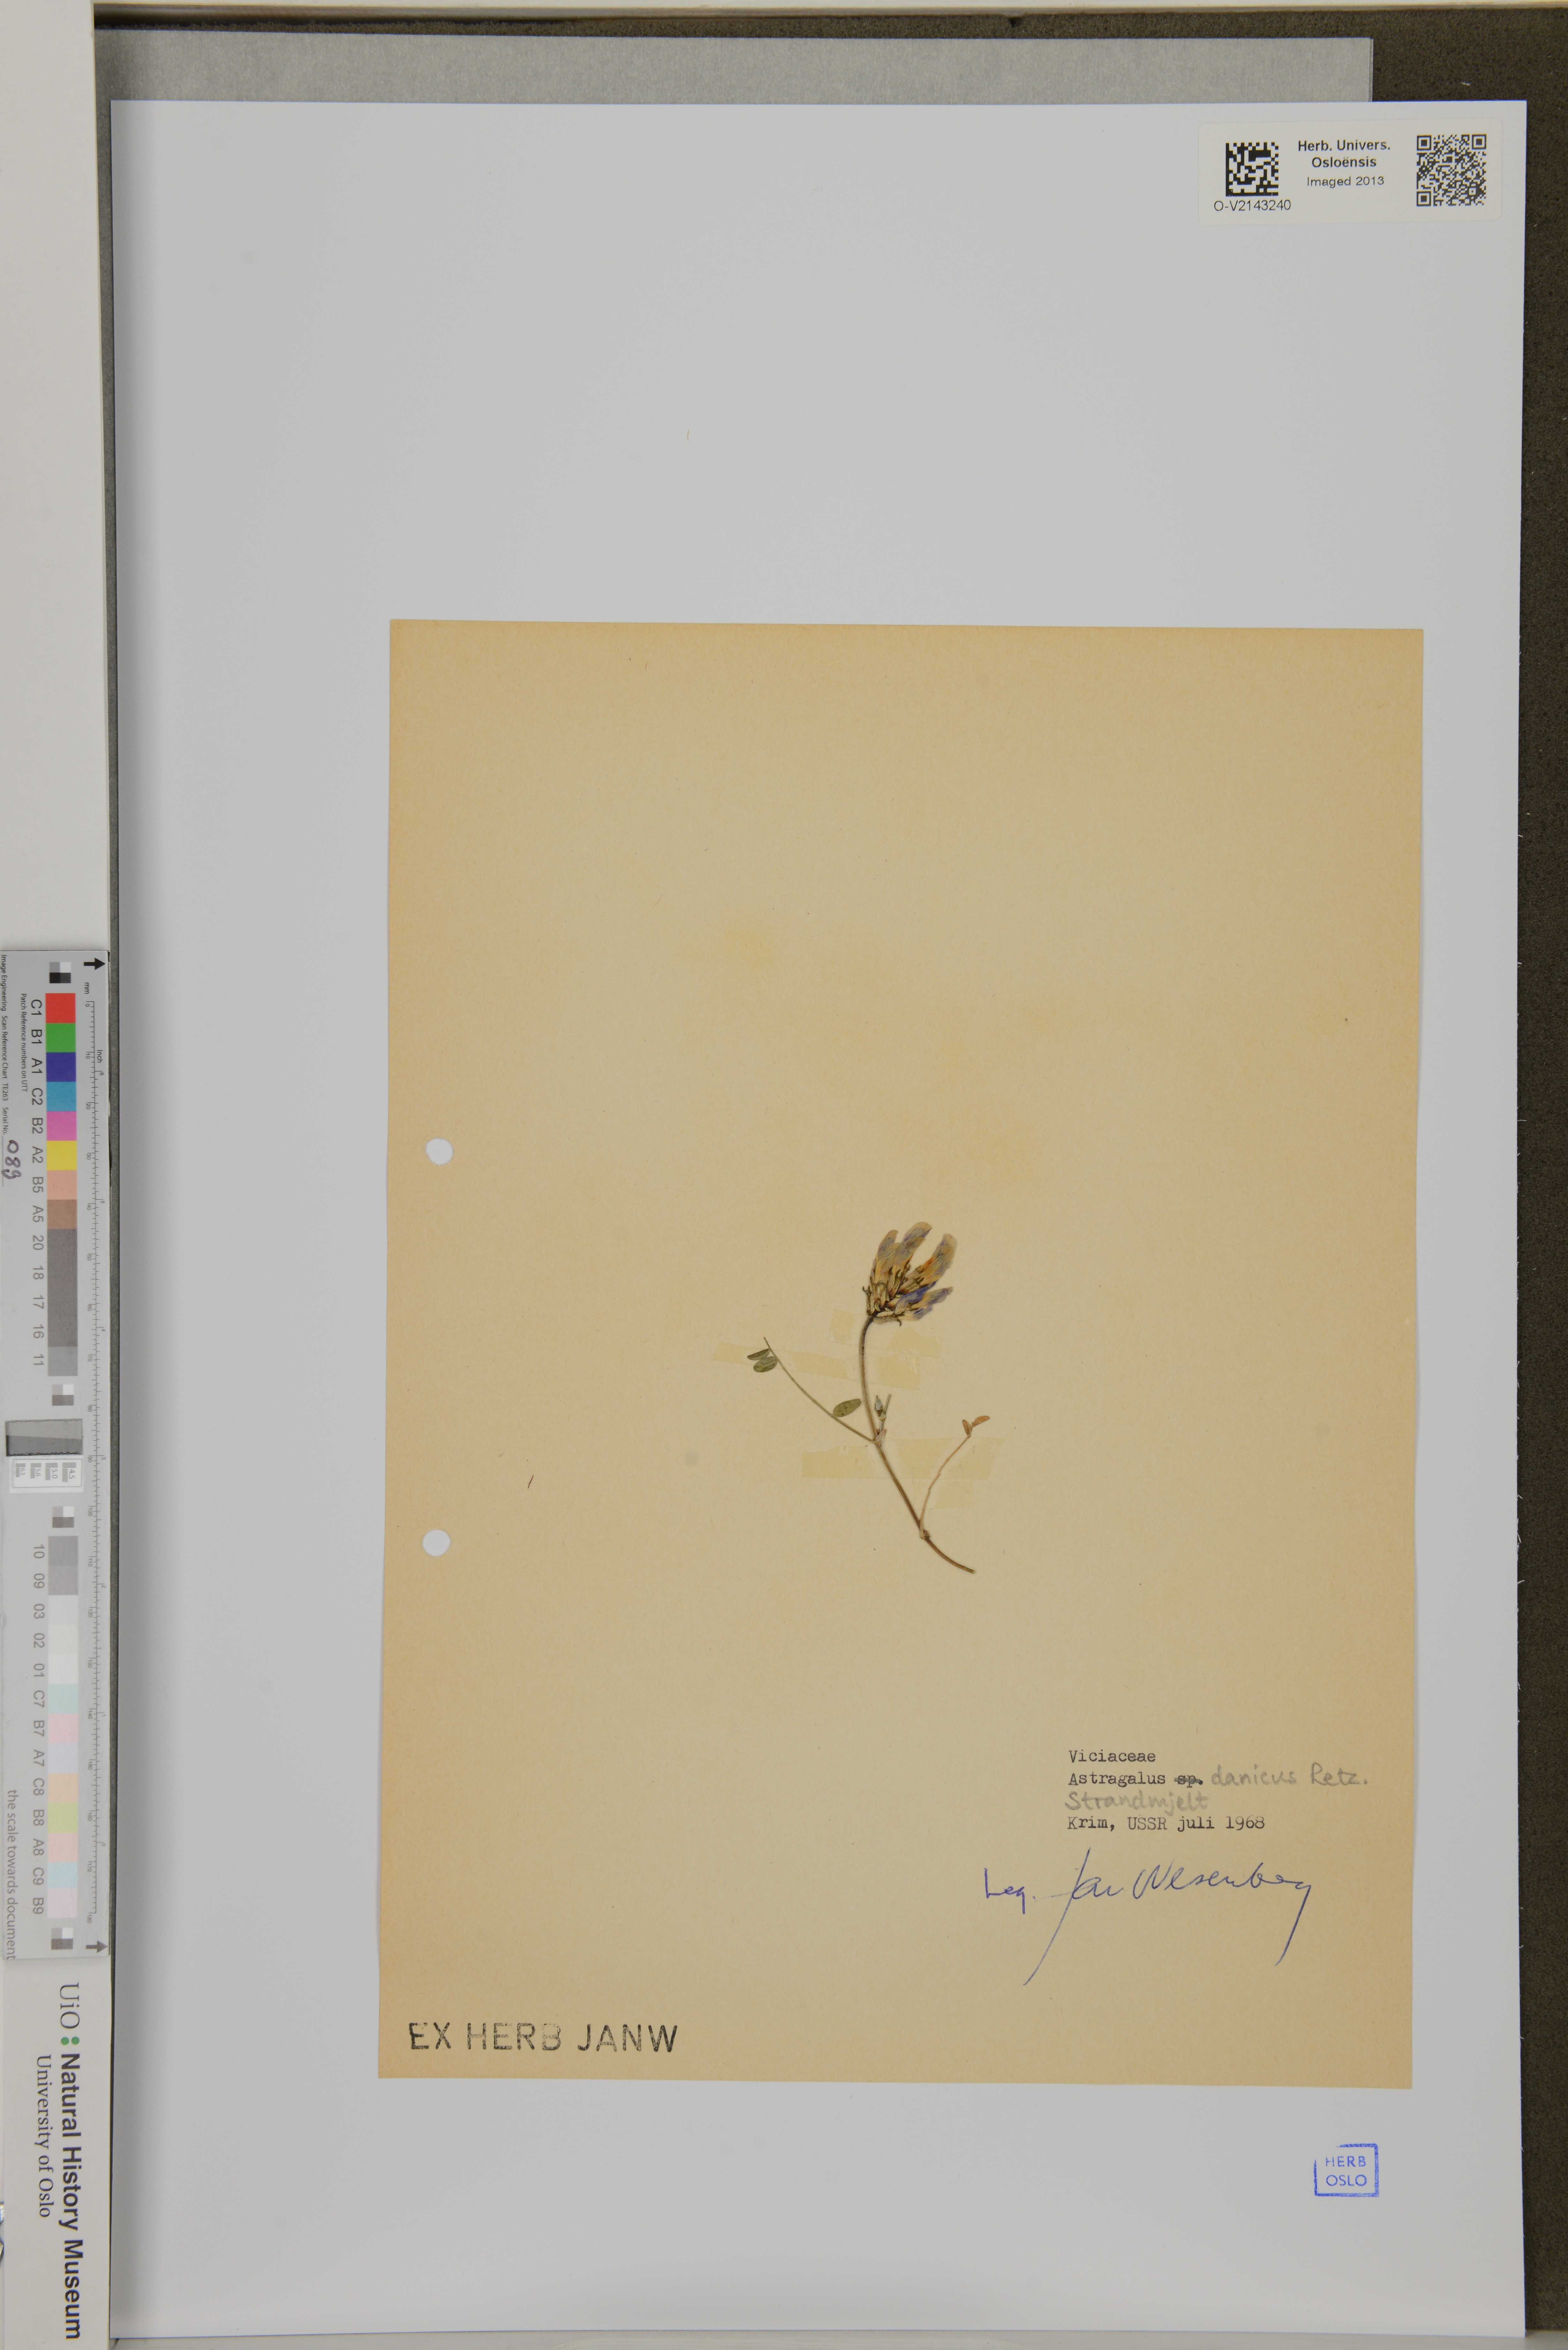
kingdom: Plantae
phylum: Tracheophyta
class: Magnoliopsida
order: Fabales
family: Fabaceae
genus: Astragalus
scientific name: Astragalus danicus
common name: Purple milk-vetch
